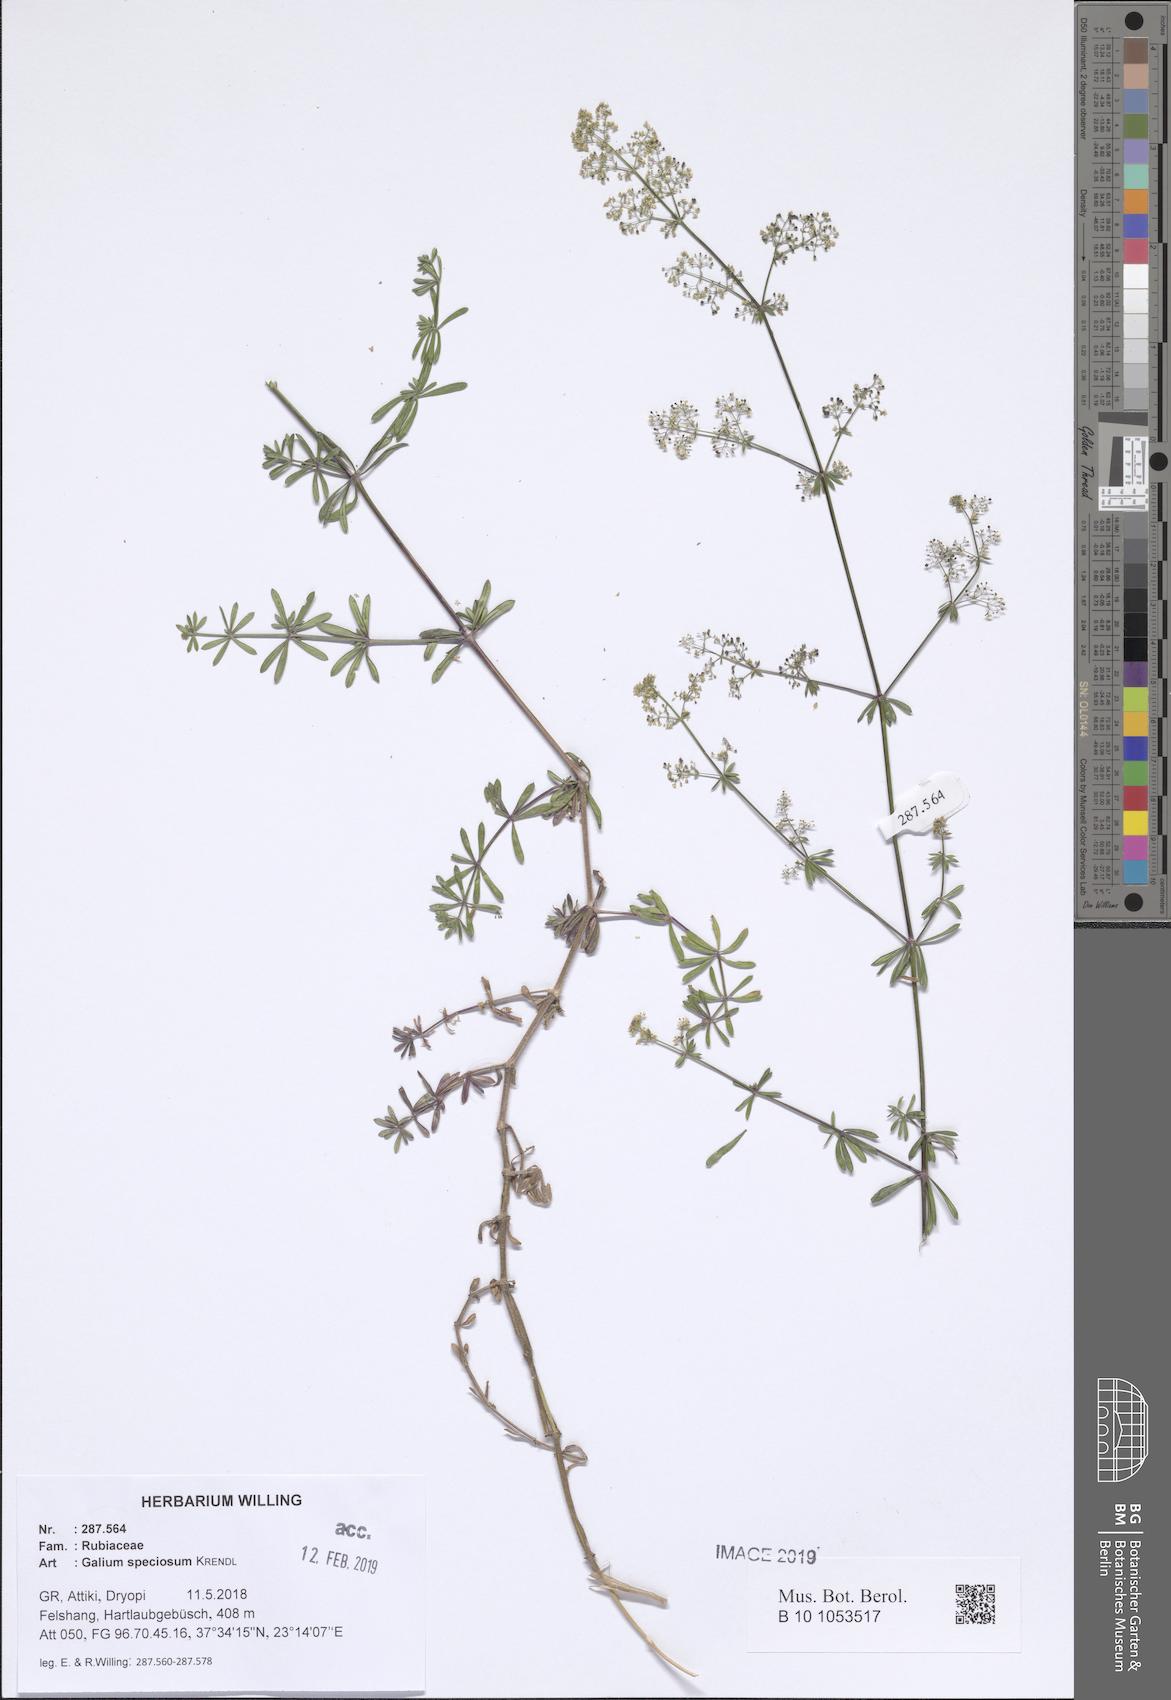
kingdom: Plantae
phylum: Tracheophyta
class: Magnoliopsida
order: Gentianales
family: Rubiaceae
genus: Galium
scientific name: Galium speciosum
